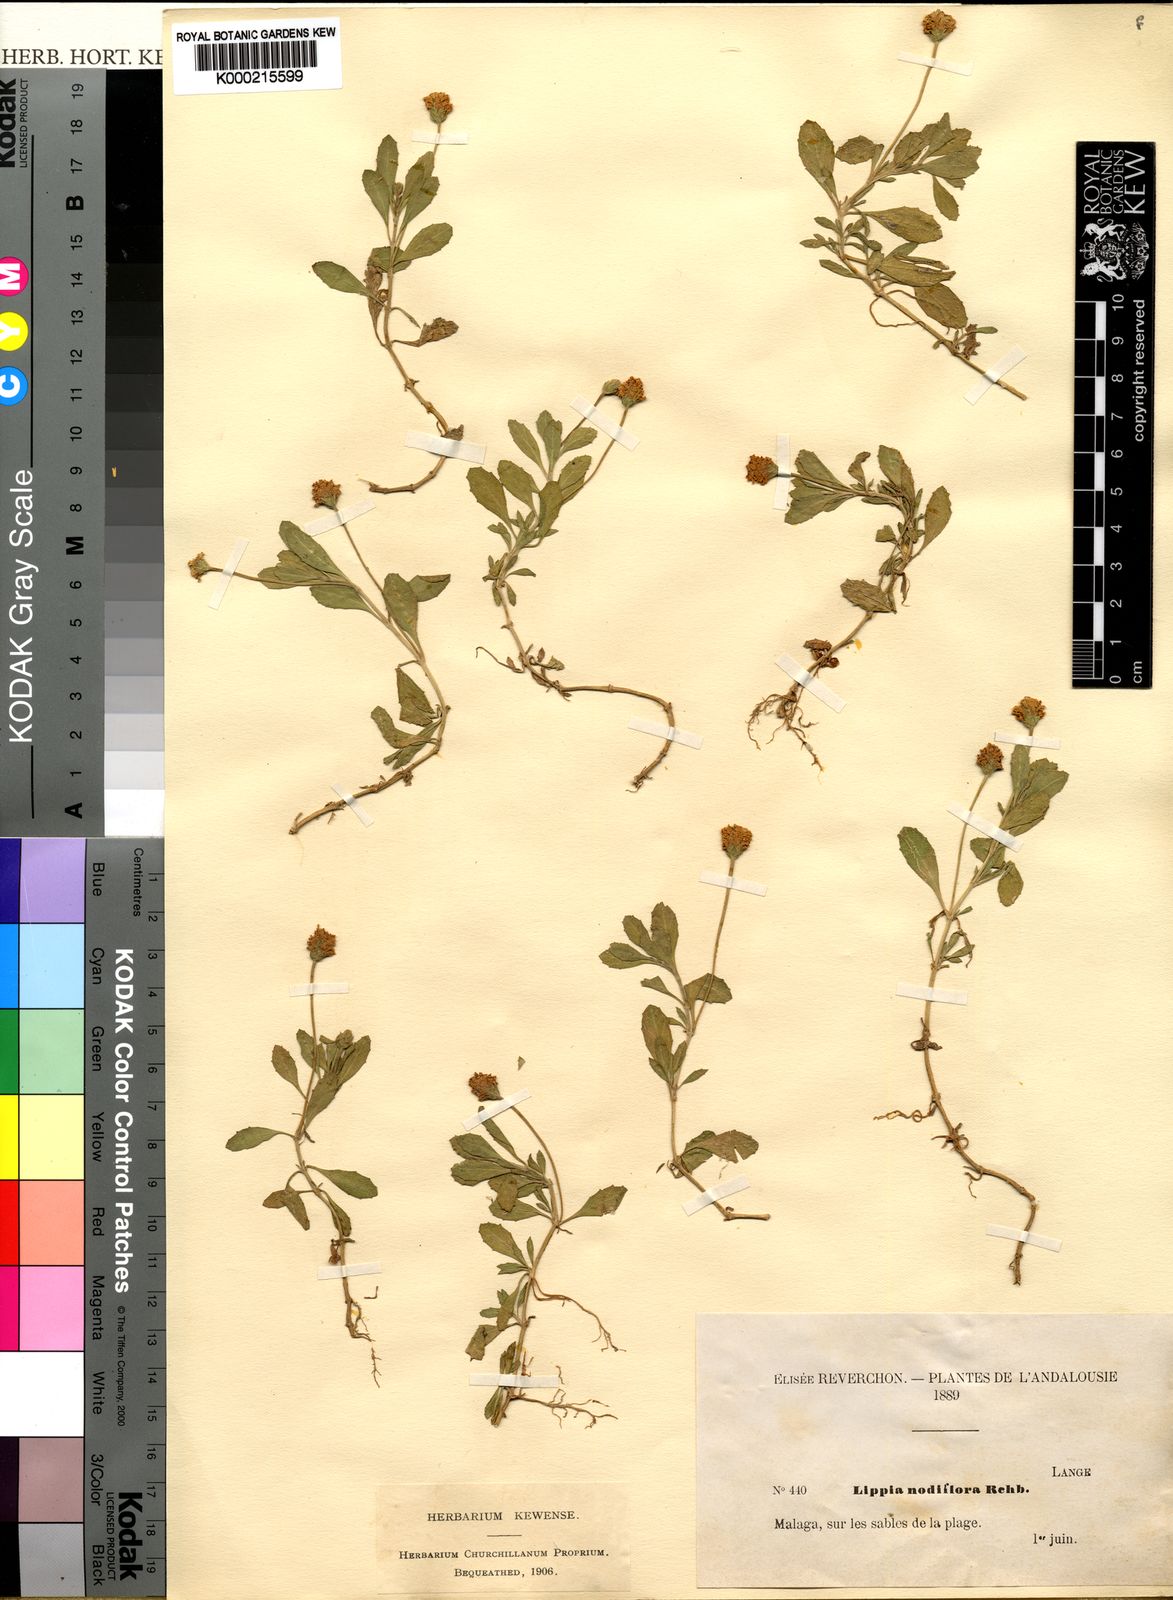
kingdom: Plantae
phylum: Tracheophyta
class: Magnoliopsida
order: Lamiales
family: Verbenaceae
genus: Phyla
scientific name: Phyla nodiflora
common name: Frogfruit
